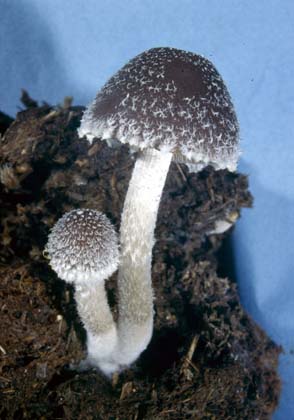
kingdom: Fungi
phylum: Basidiomycota
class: Agaricomycetes
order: Agaricales
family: Psathyrellaceae
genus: Psathyrella
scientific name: Psathyrella hirta
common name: møg-mørkhat
